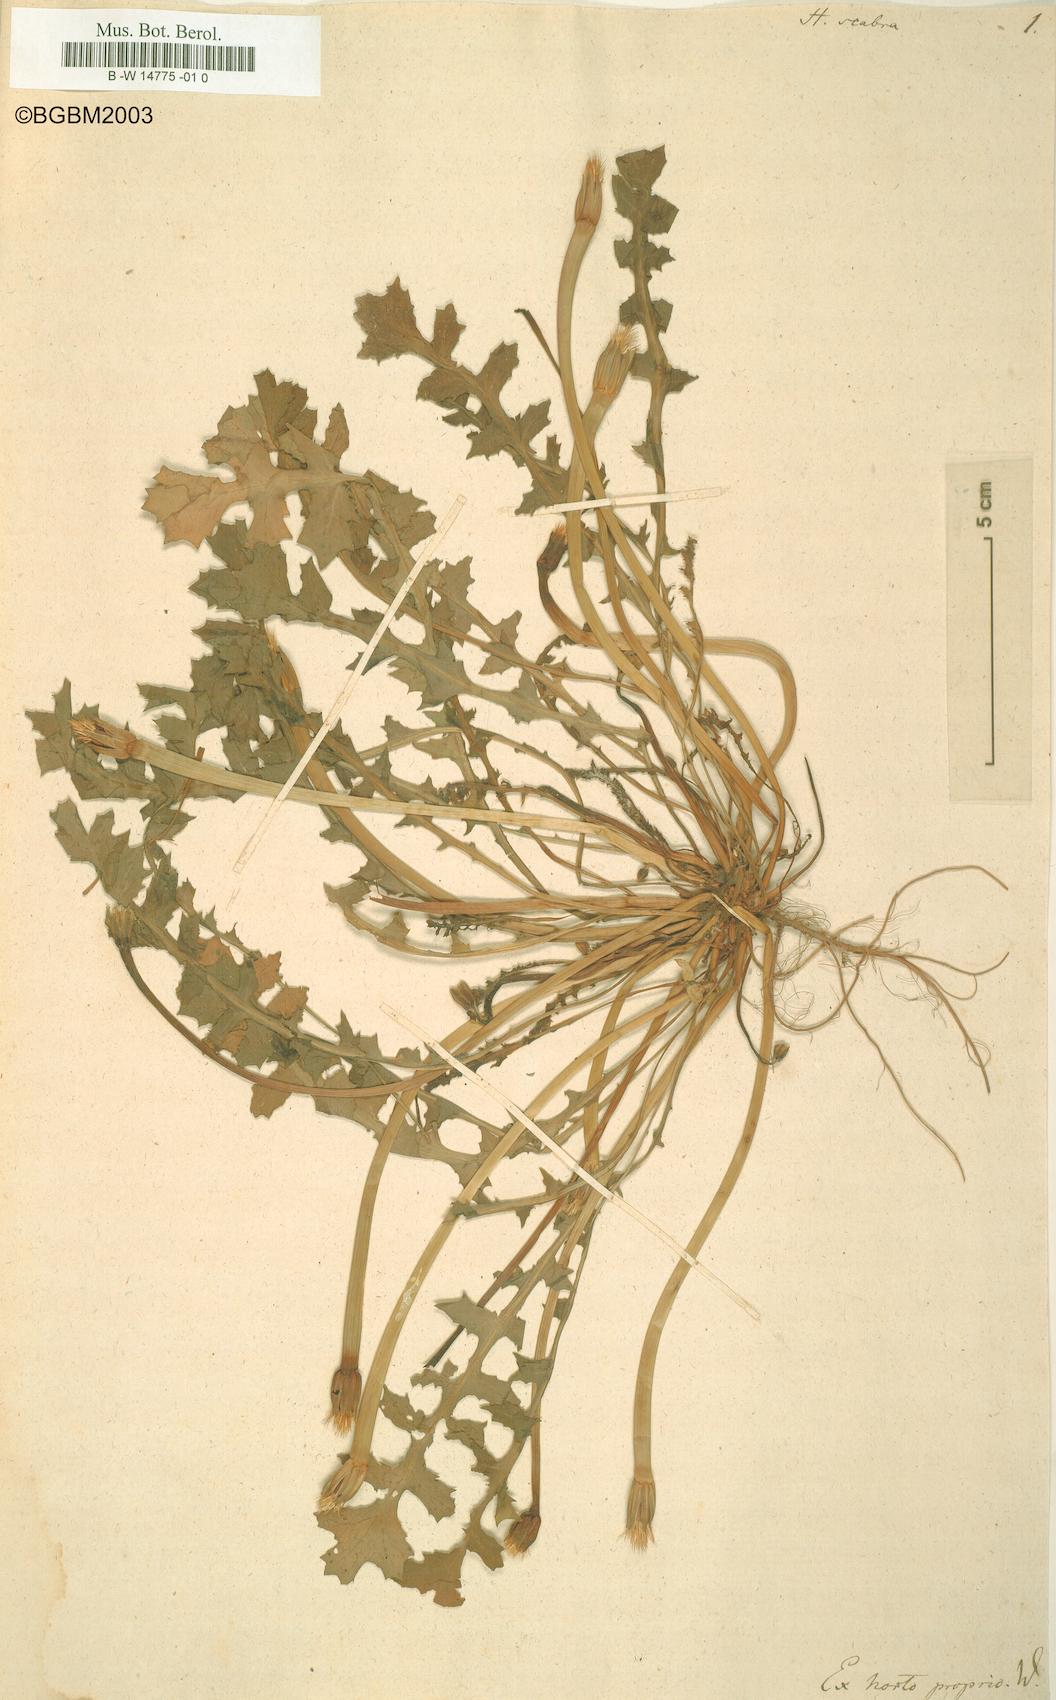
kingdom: Plantae
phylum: Tracheophyta
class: Magnoliopsida
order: Asterales
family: Asteraceae
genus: Hyoseris
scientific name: Hyoseris scabra
